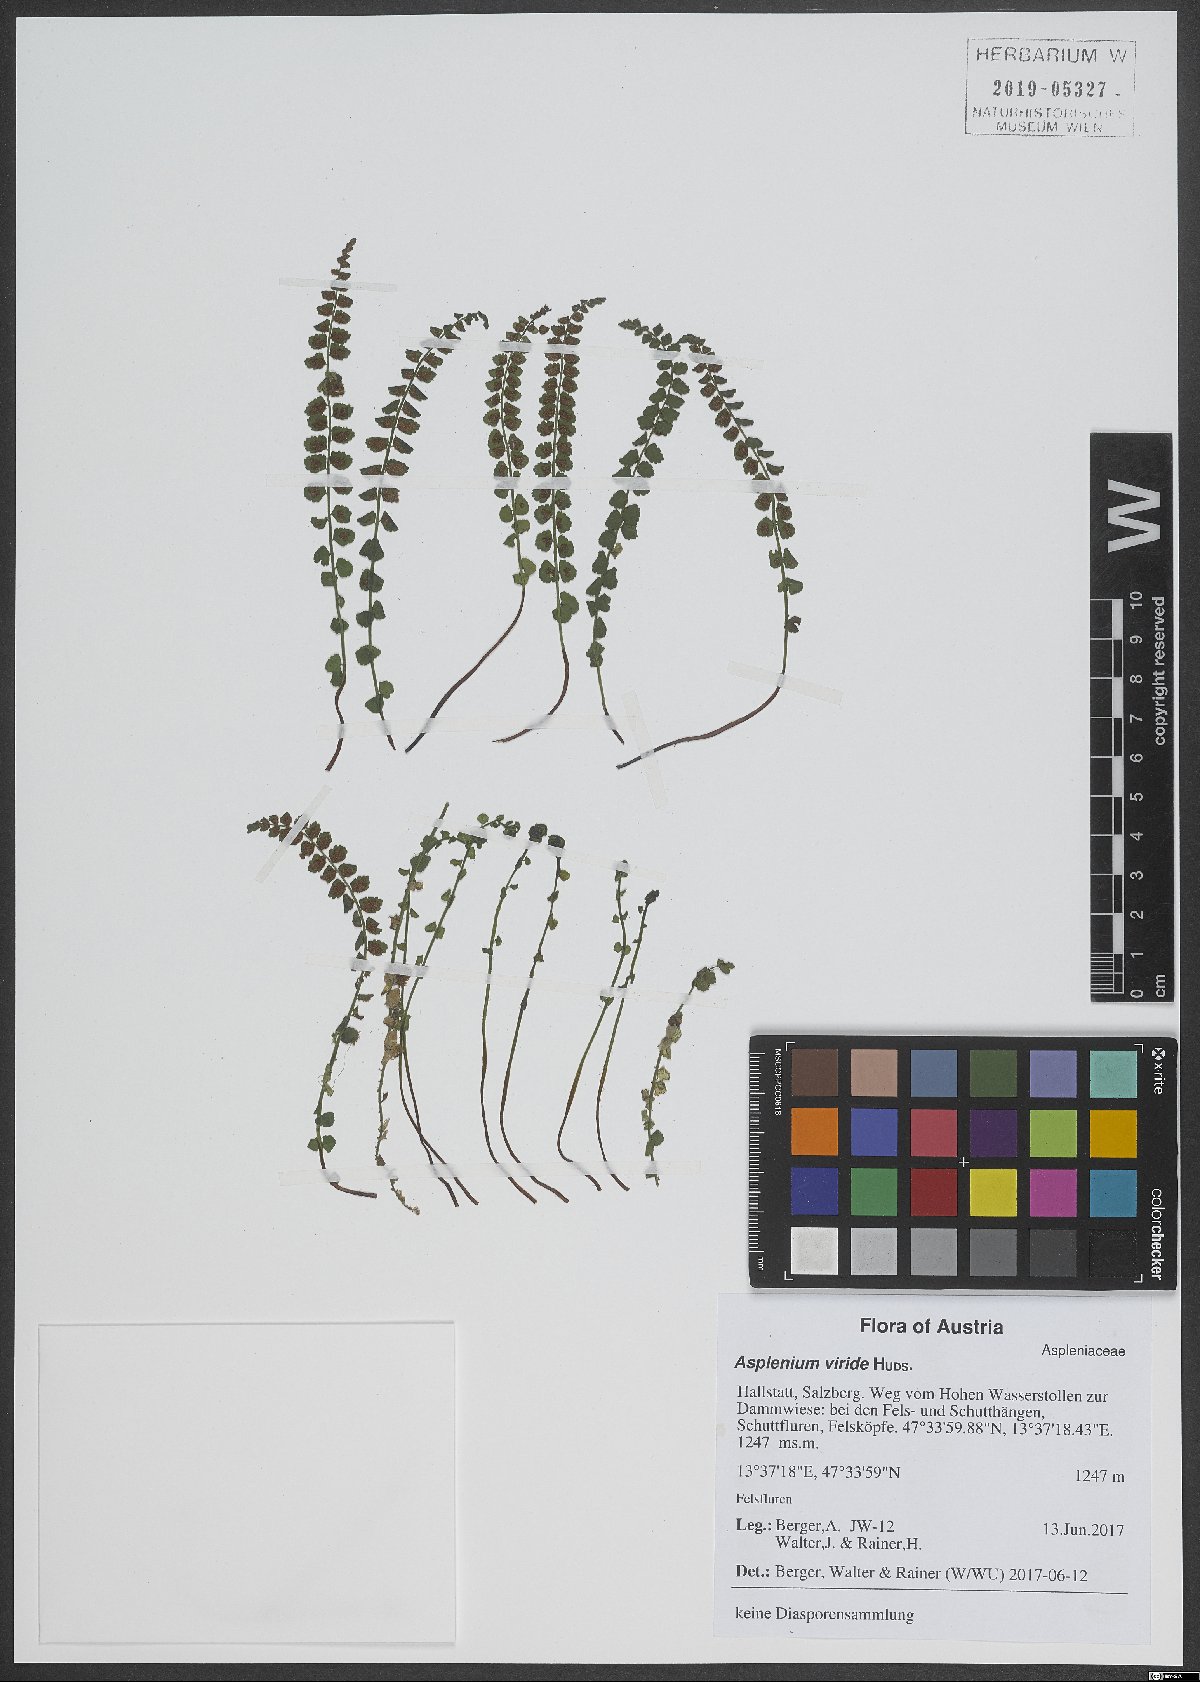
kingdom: Plantae
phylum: Tracheophyta
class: Polypodiopsida
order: Polypodiales
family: Aspleniaceae
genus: Asplenium
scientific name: Asplenium viride
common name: Green spleenwort
